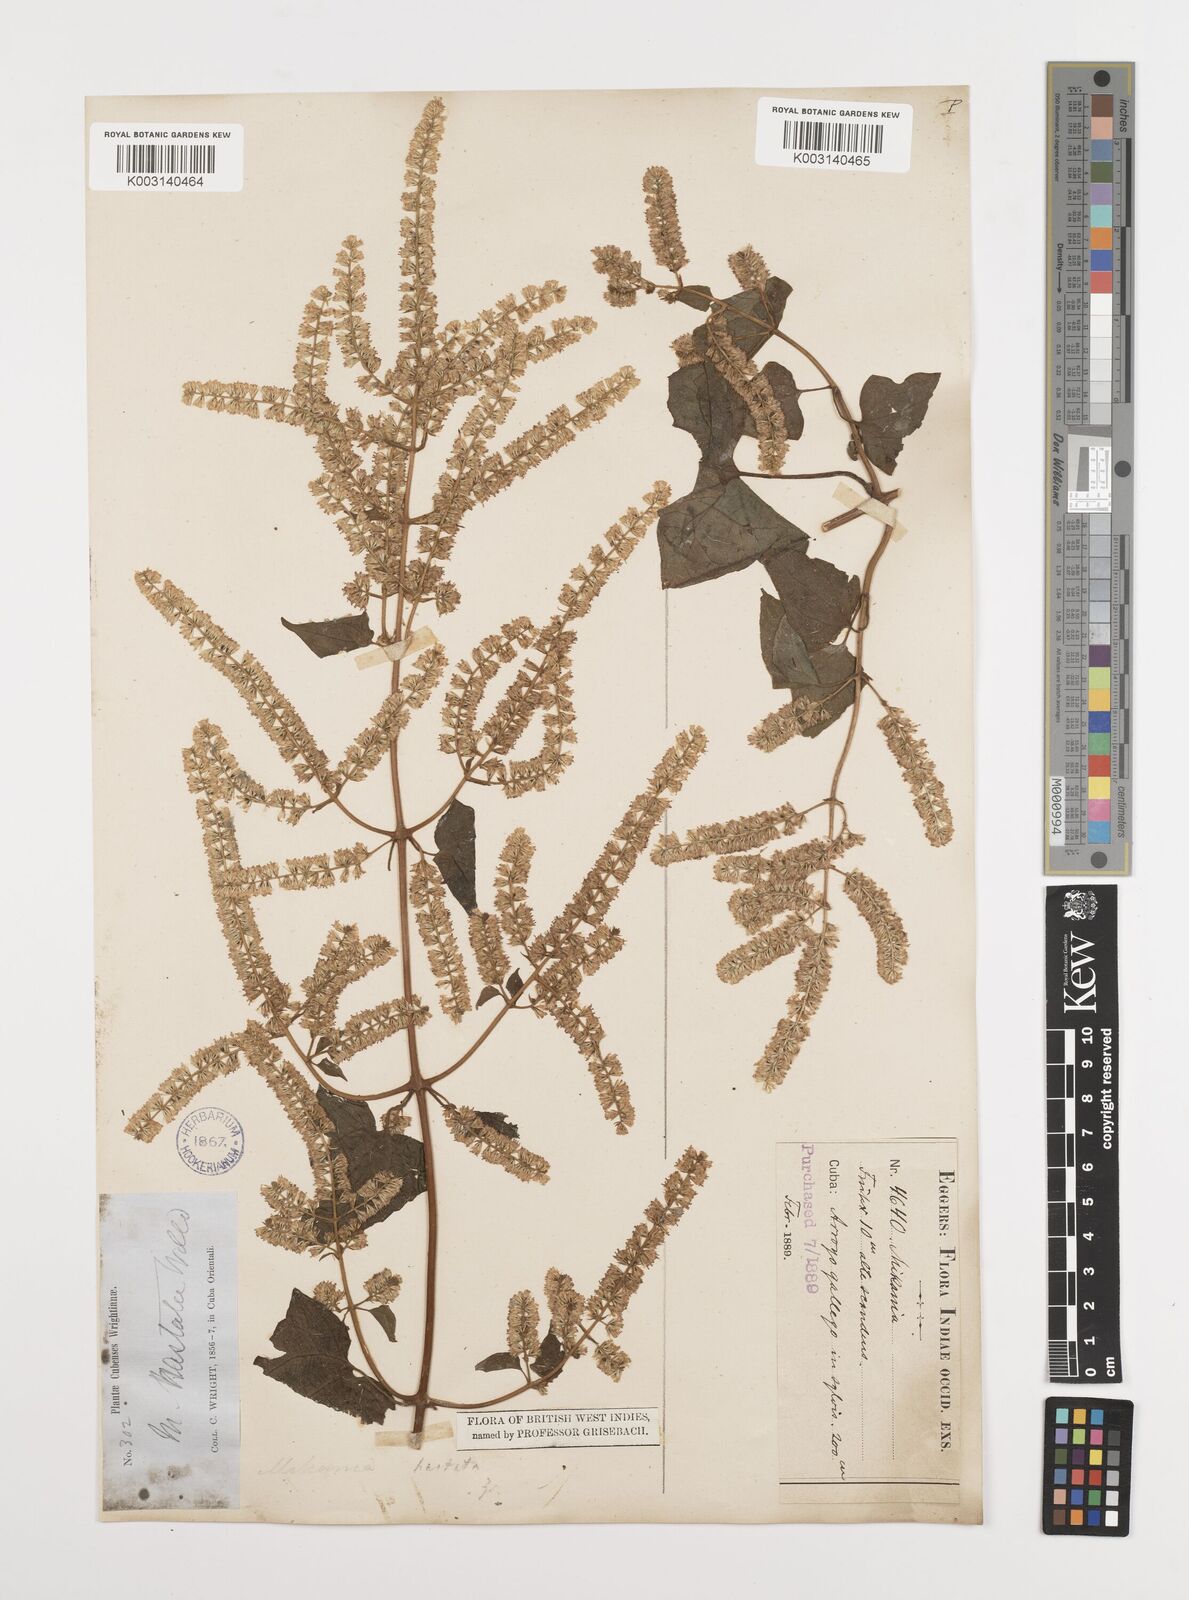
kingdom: Plantae
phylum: Tracheophyta
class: Magnoliopsida
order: Asterales
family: Asteraceae
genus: Mikania
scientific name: Mikania hastata
